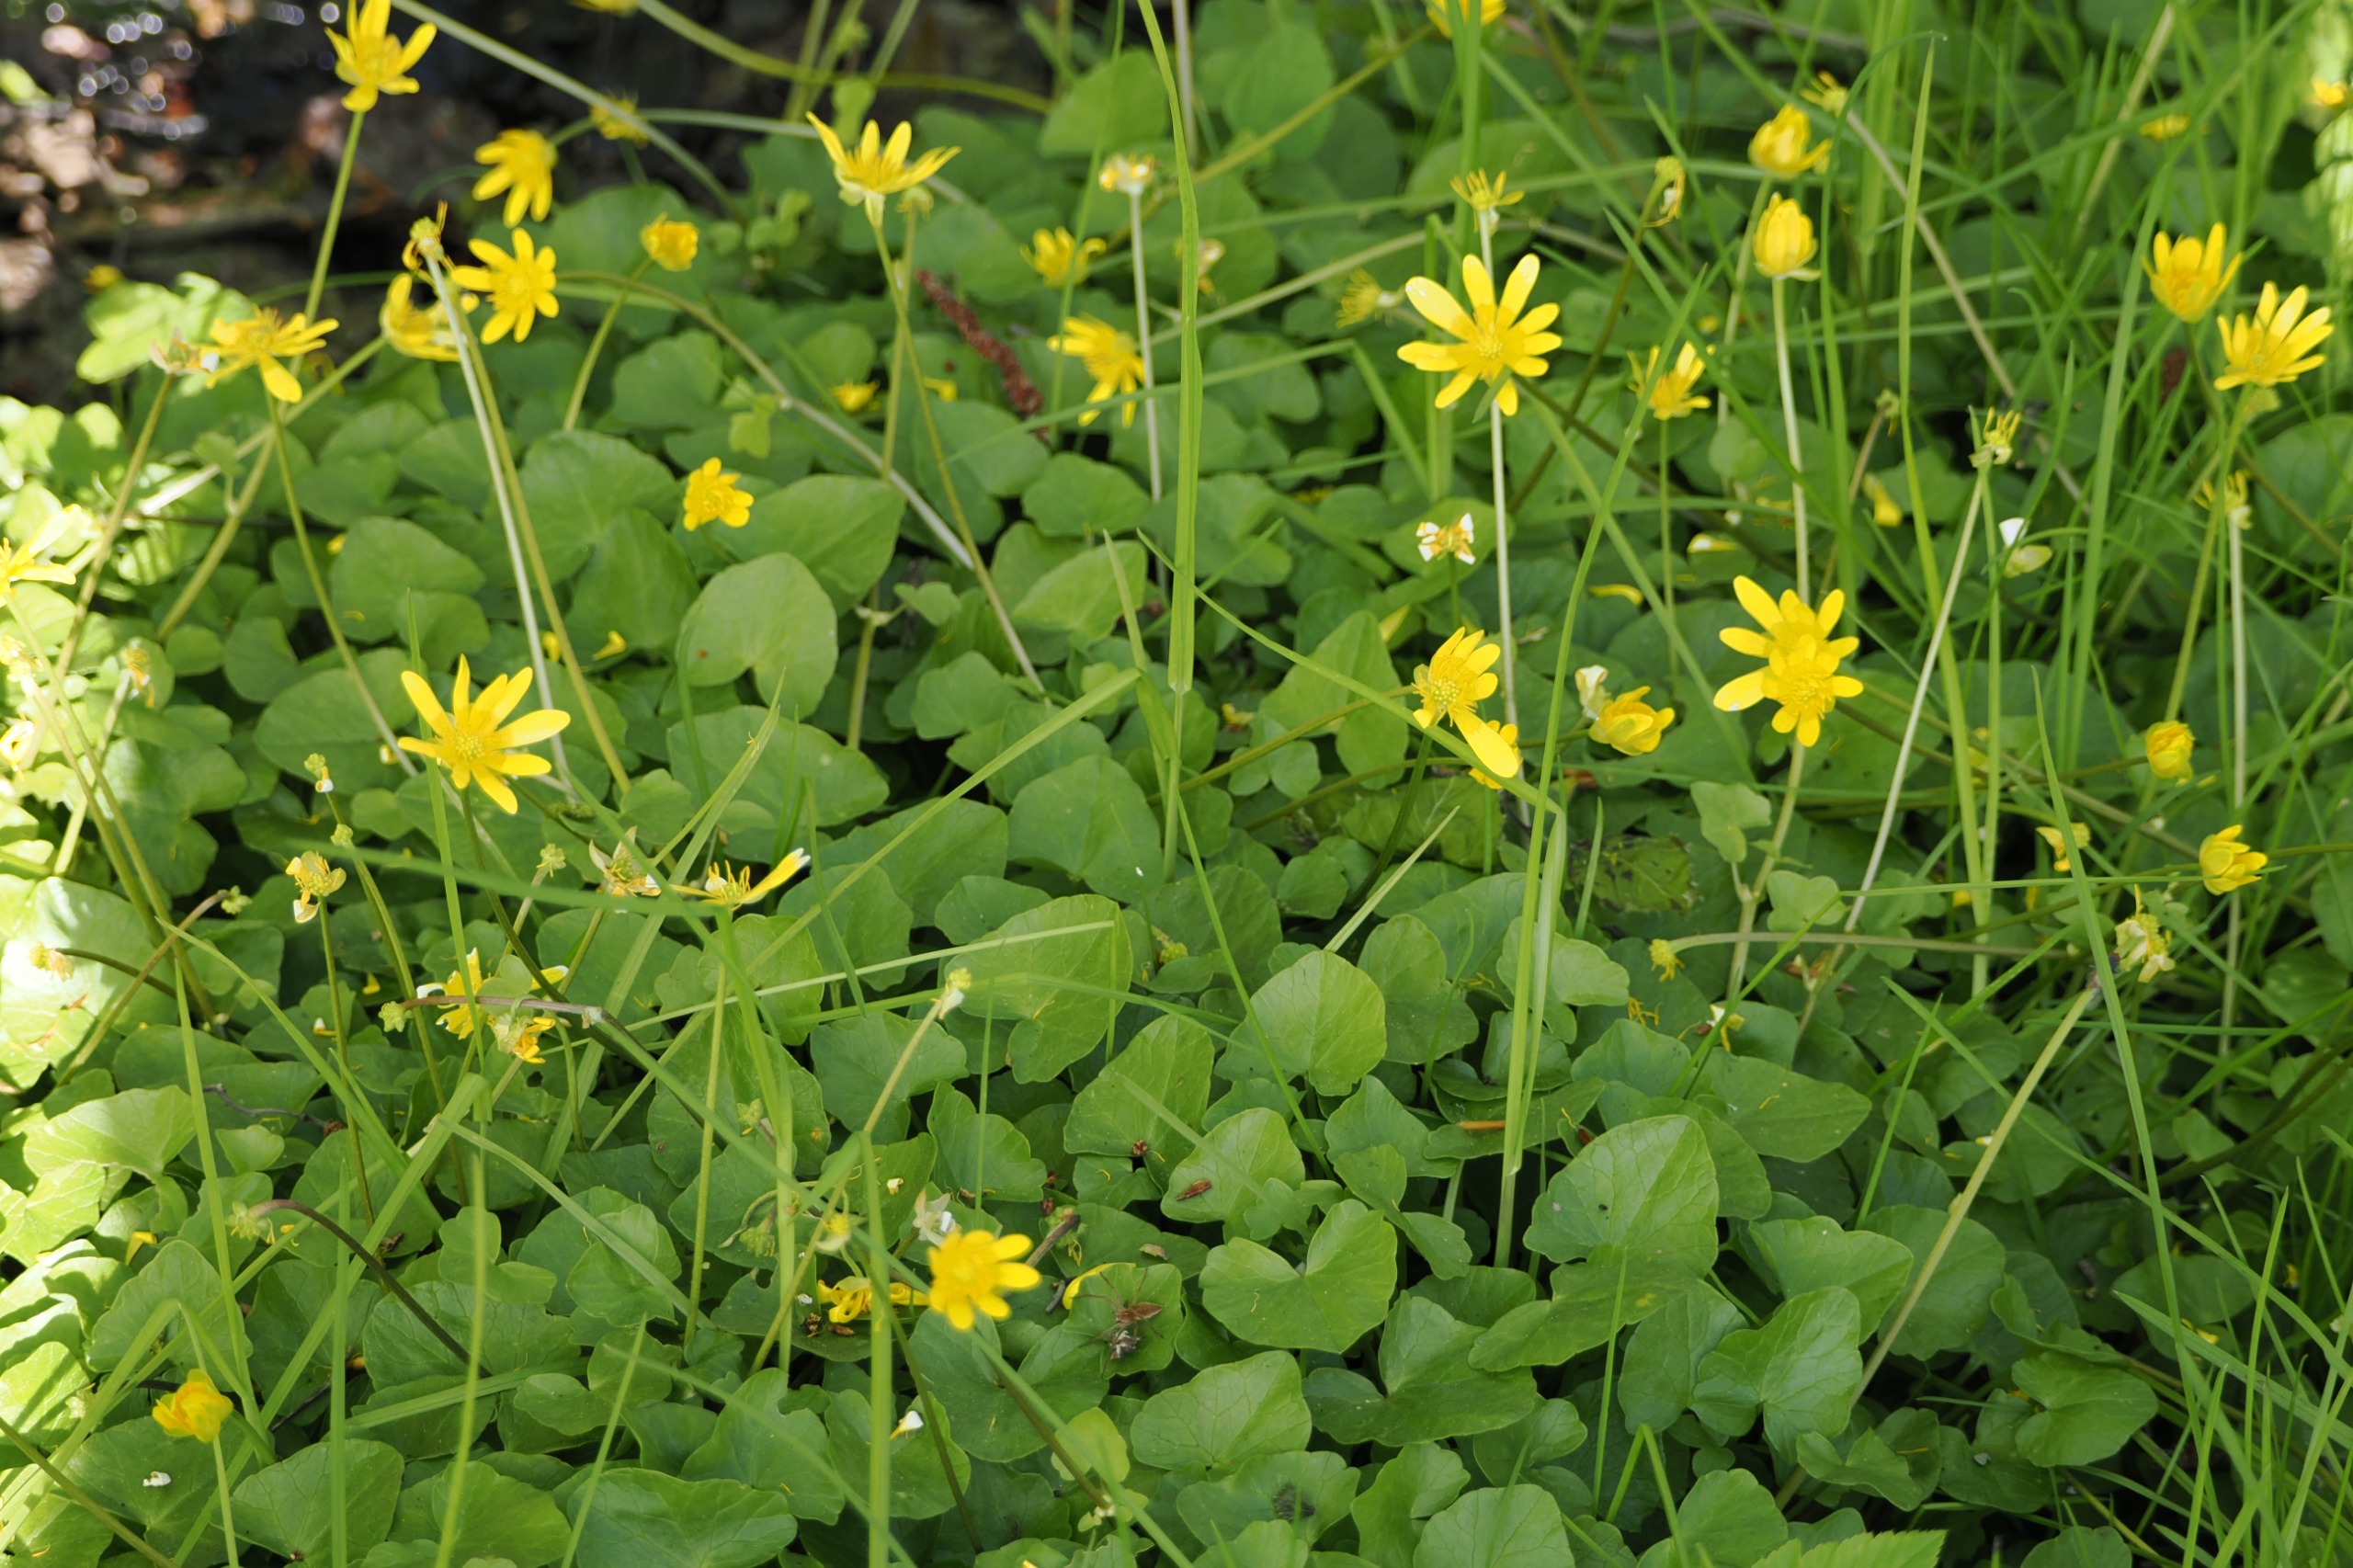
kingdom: Plantae
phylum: Tracheophyta
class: Magnoliopsida
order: Ranunculales
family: Ranunculaceae
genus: Ficaria
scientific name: Ficaria verna
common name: Vorterod
